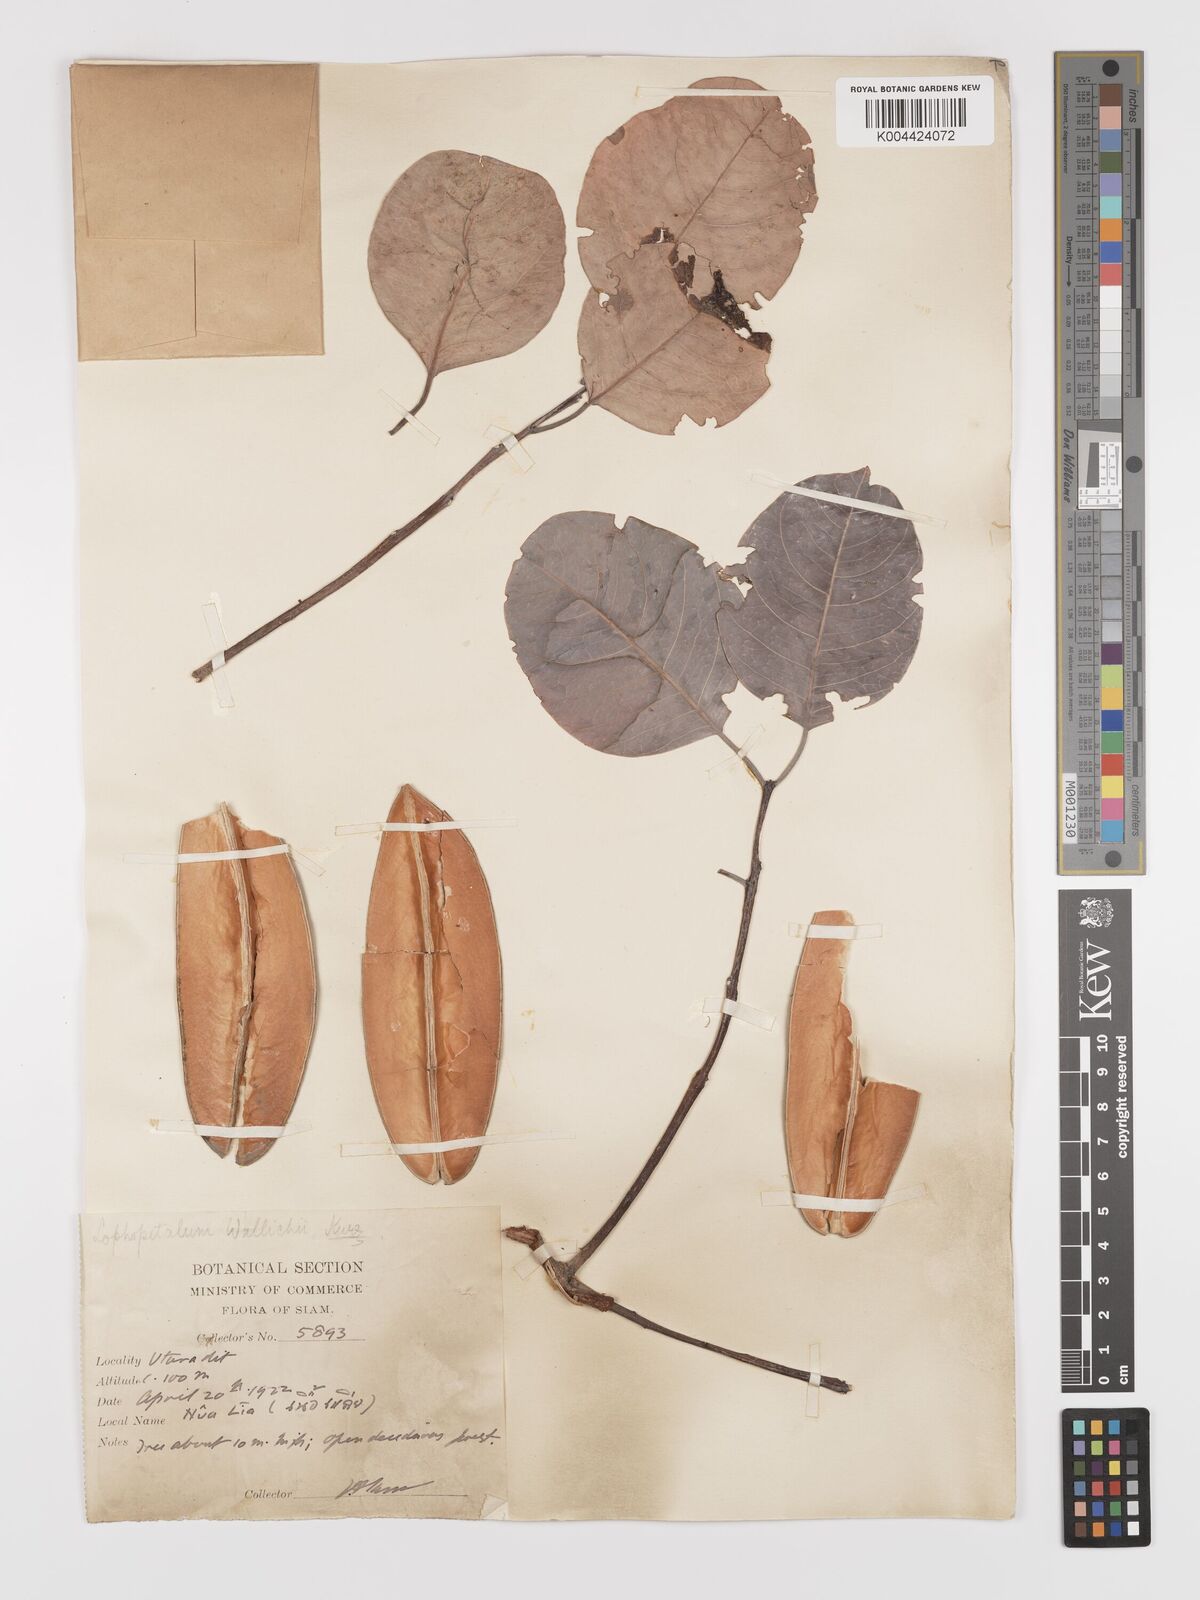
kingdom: Plantae
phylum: Tracheophyta
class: Magnoliopsida
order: Celastrales
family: Celastraceae
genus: Lophopetalum
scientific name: Lophopetalum wallichii
